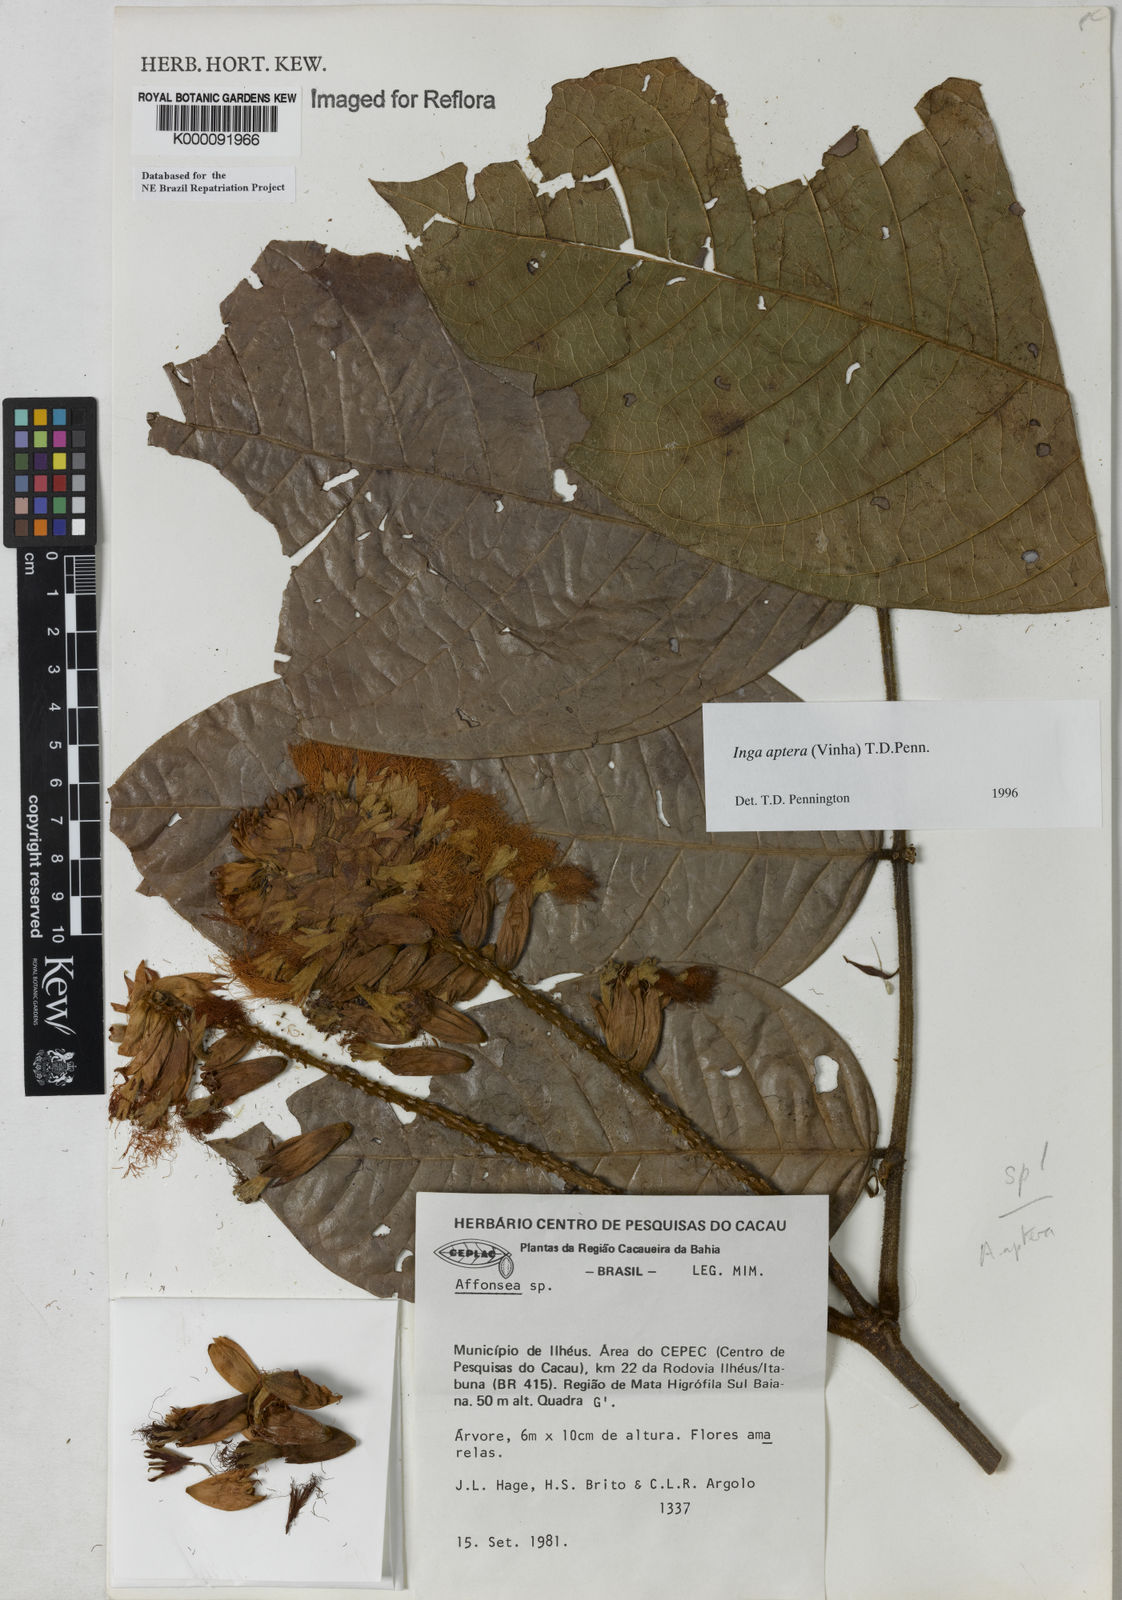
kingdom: Plantae
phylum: Tracheophyta
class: Magnoliopsida
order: Fabales
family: Fabaceae
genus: Inga
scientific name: Inga aptera
